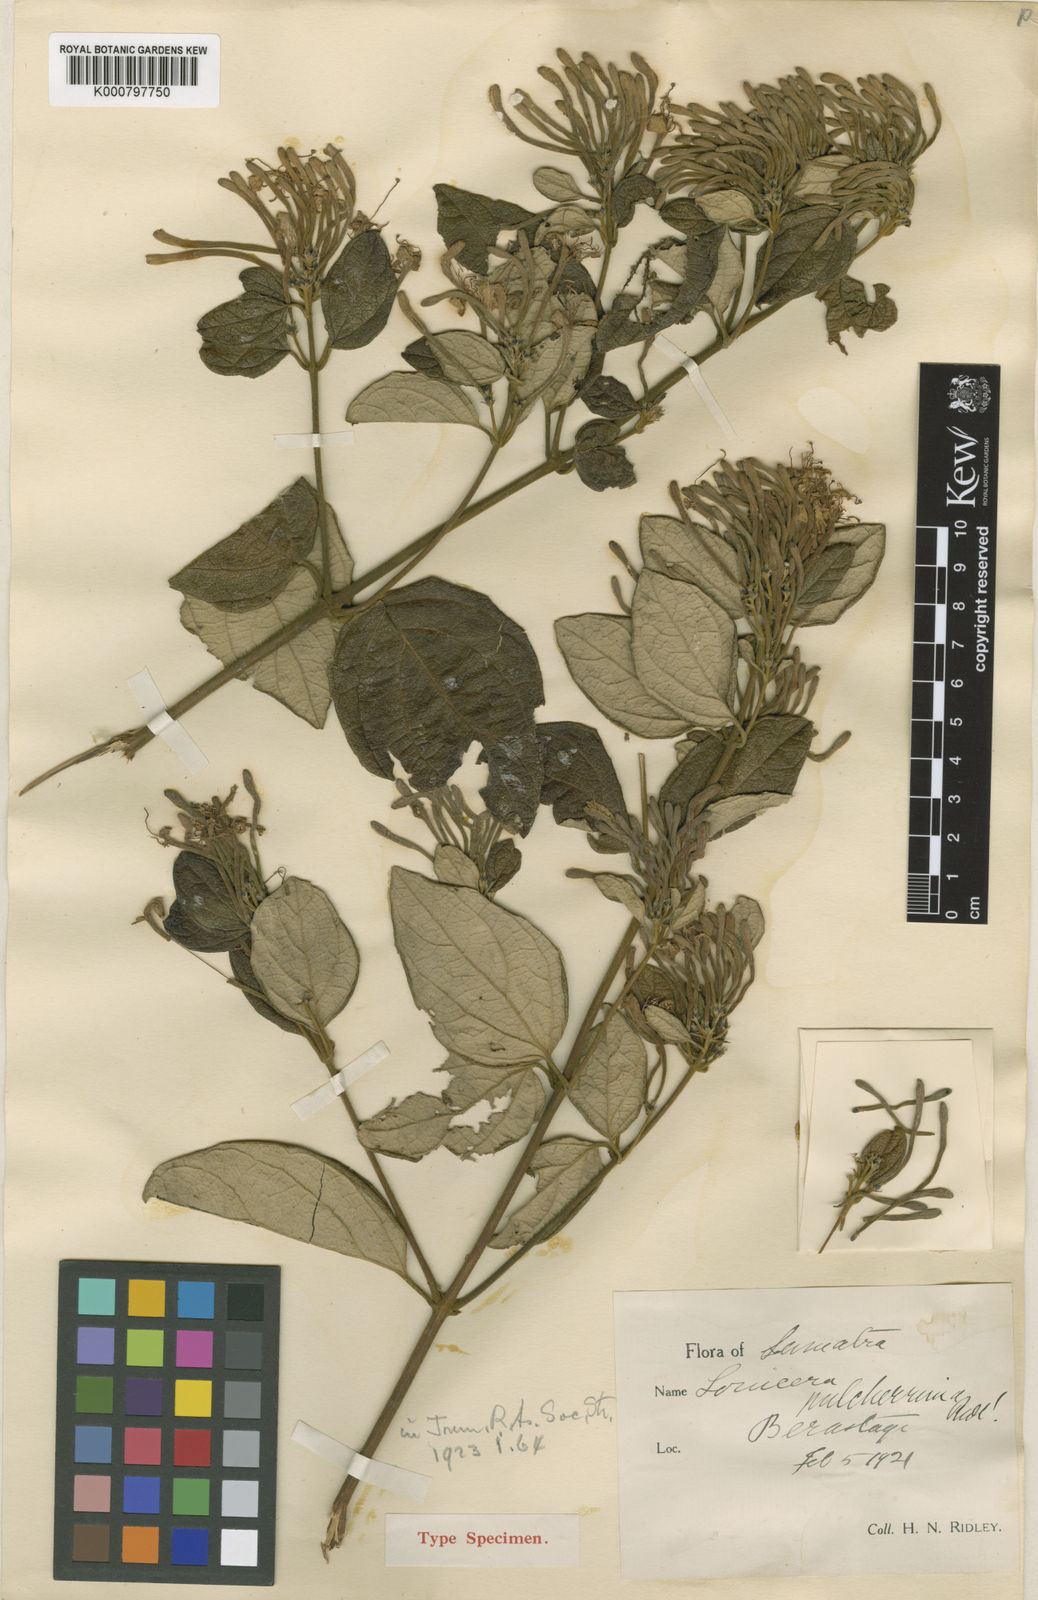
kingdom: Plantae
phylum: Tracheophyta
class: Magnoliopsida
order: Dipsacales
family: Caprifoliaceae
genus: Lonicera
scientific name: Lonicera pulcherrima
